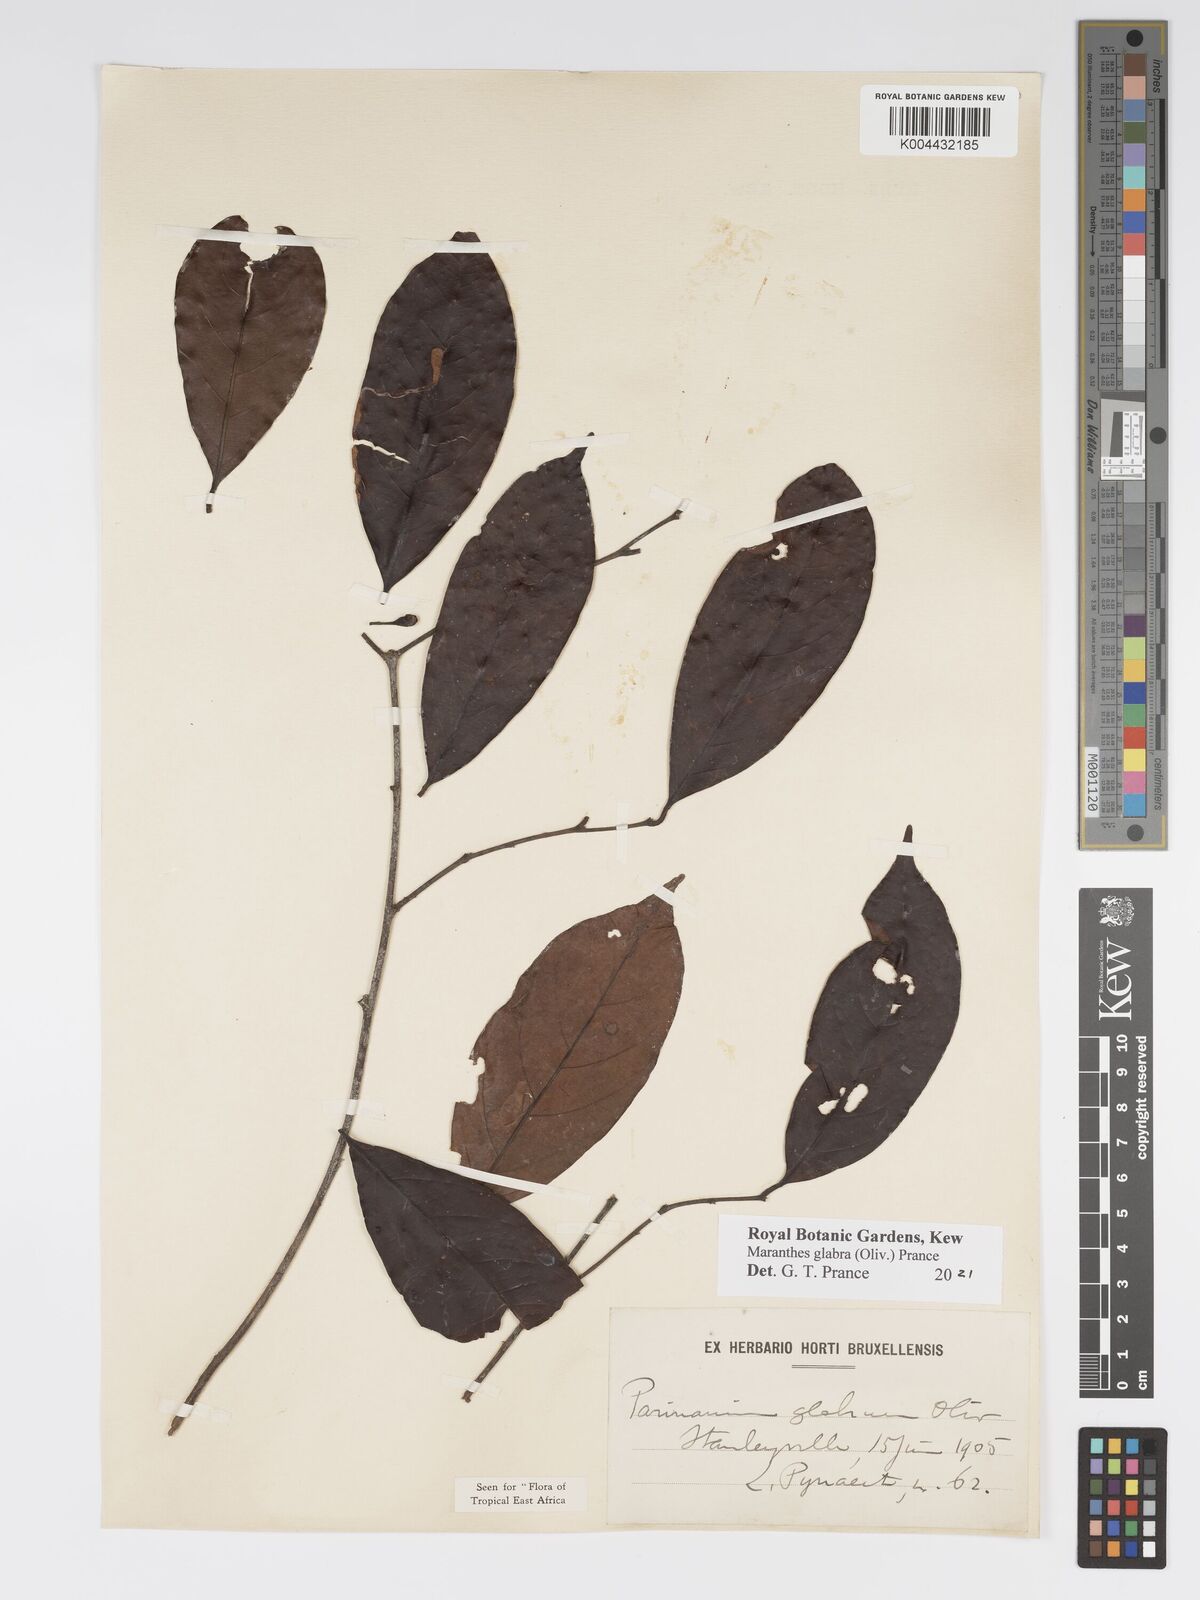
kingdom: Plantae
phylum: Tracheophyta
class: Magnoliopsida
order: Malpighiales
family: Chrysobalanaceae
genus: Maranthes
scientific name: Maranthes glabra
